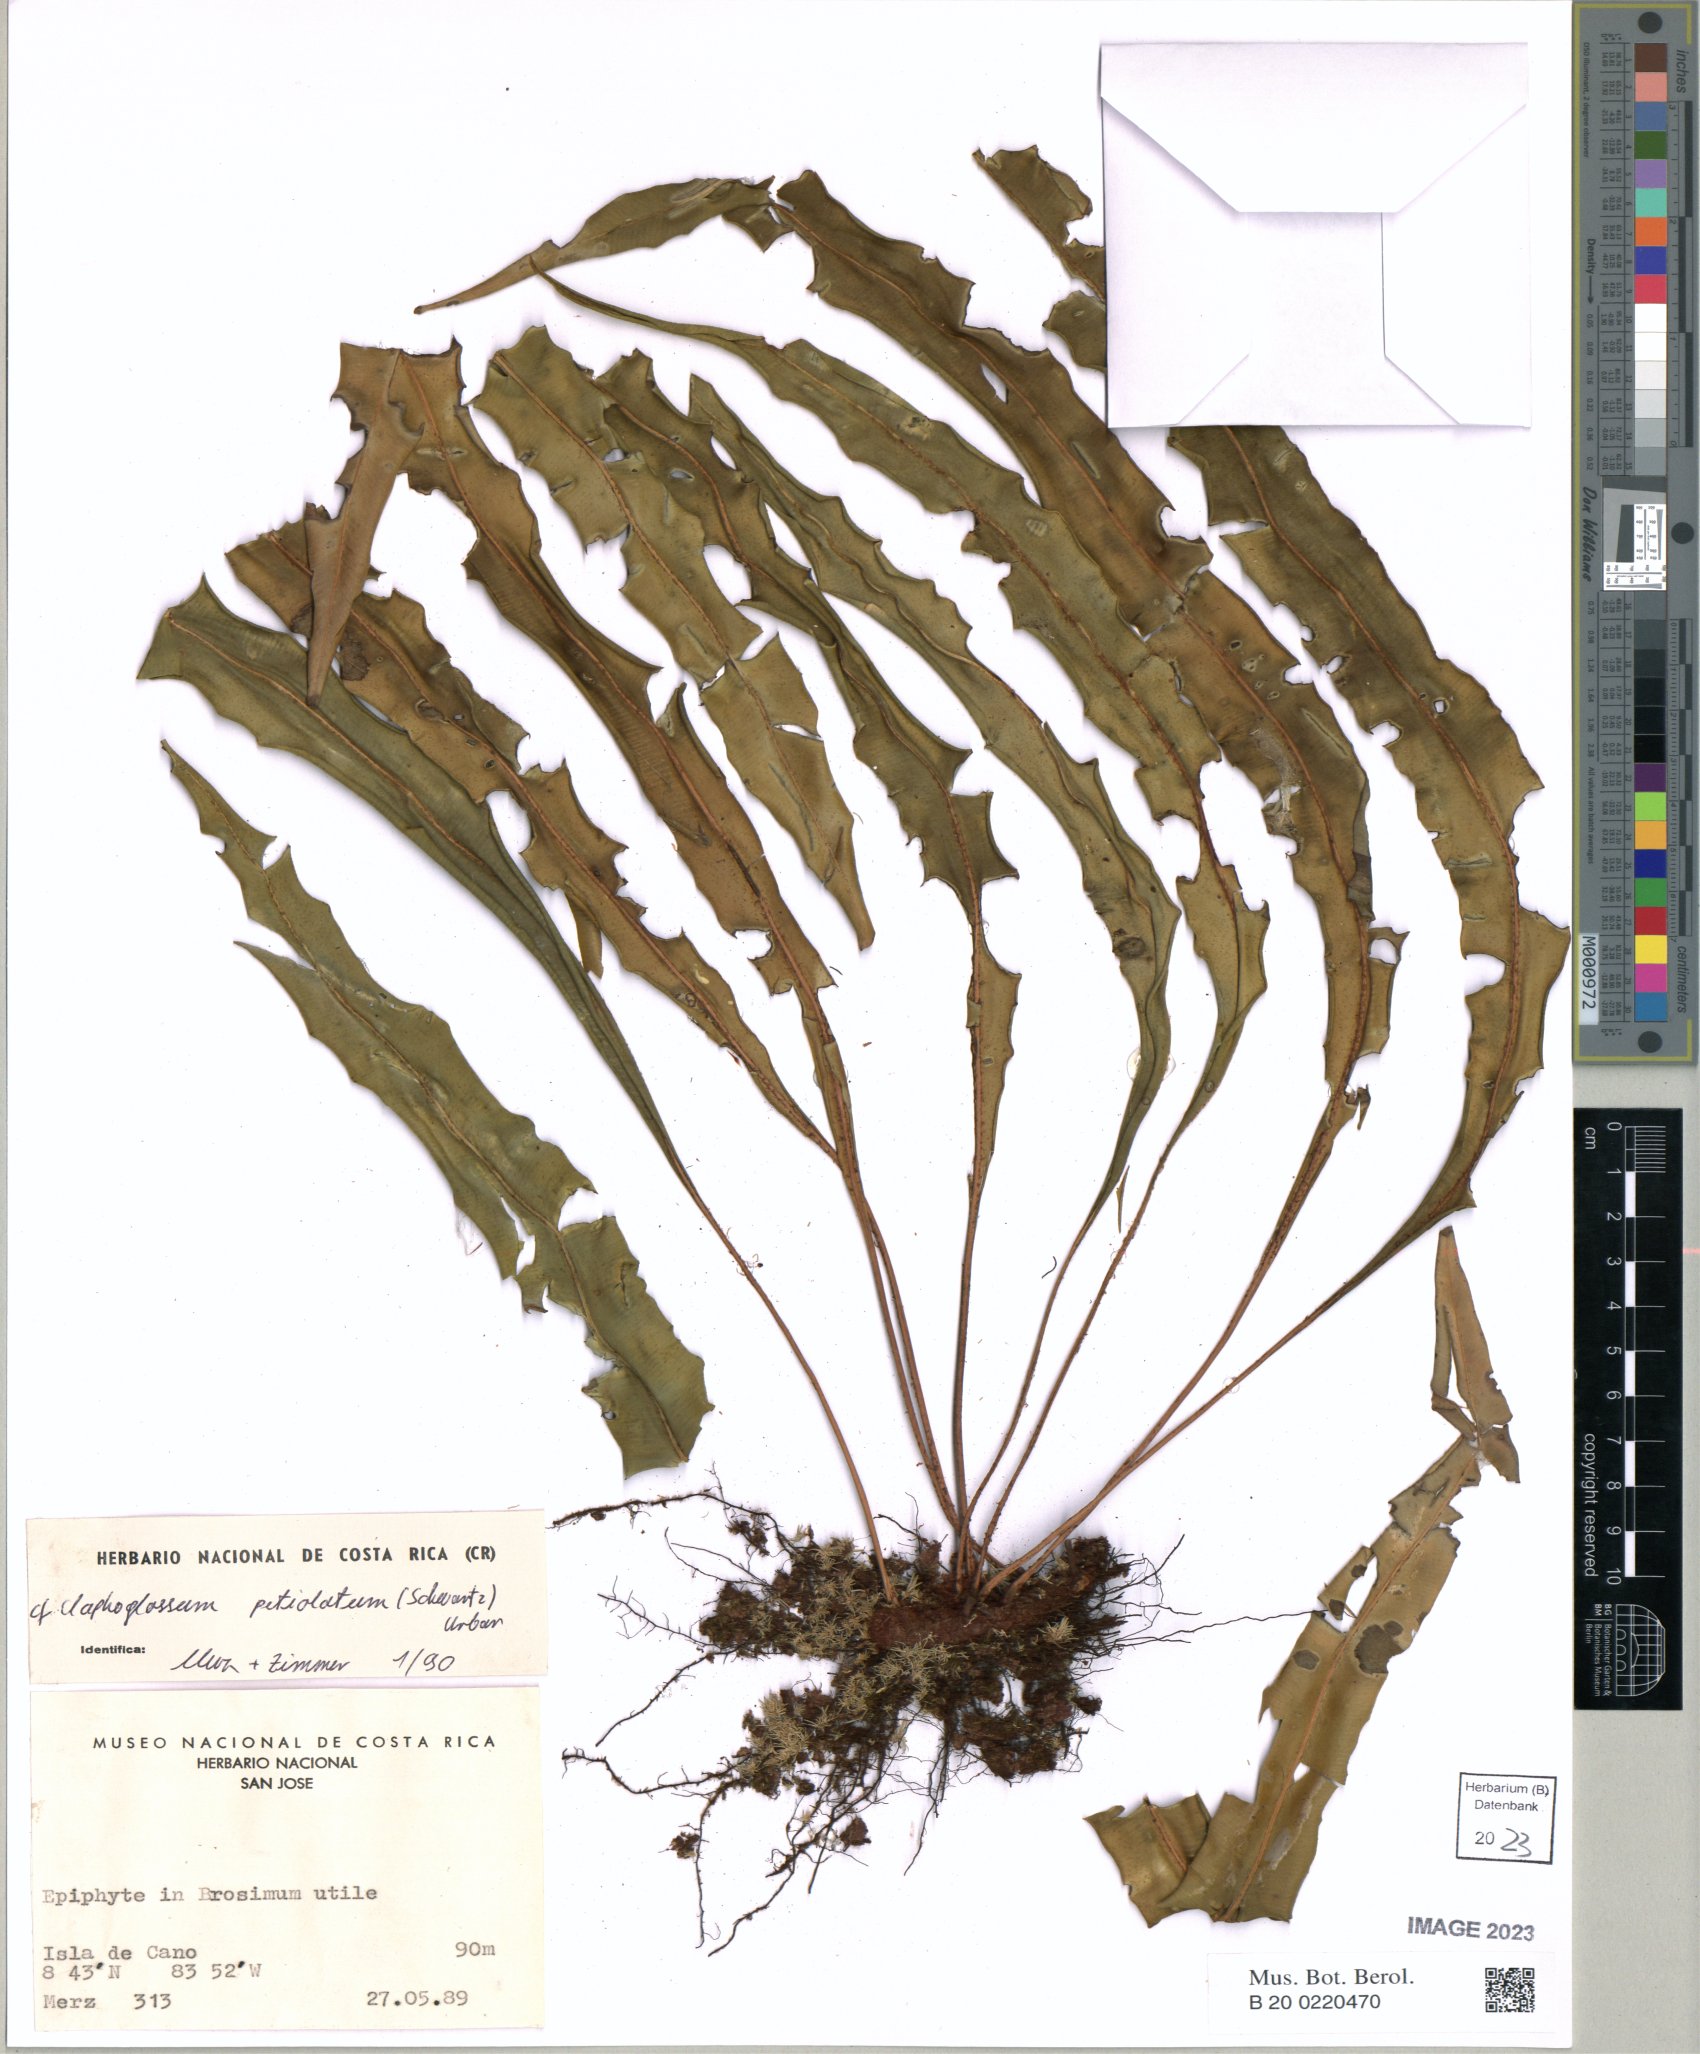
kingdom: Plantae
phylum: Tracheophyta
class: Polypodiopsida
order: Polypodiales
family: Dryopteridaceae
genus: Elaphoglossum
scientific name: Elaphoglossum petiolatum
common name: Graceful tonguefern
